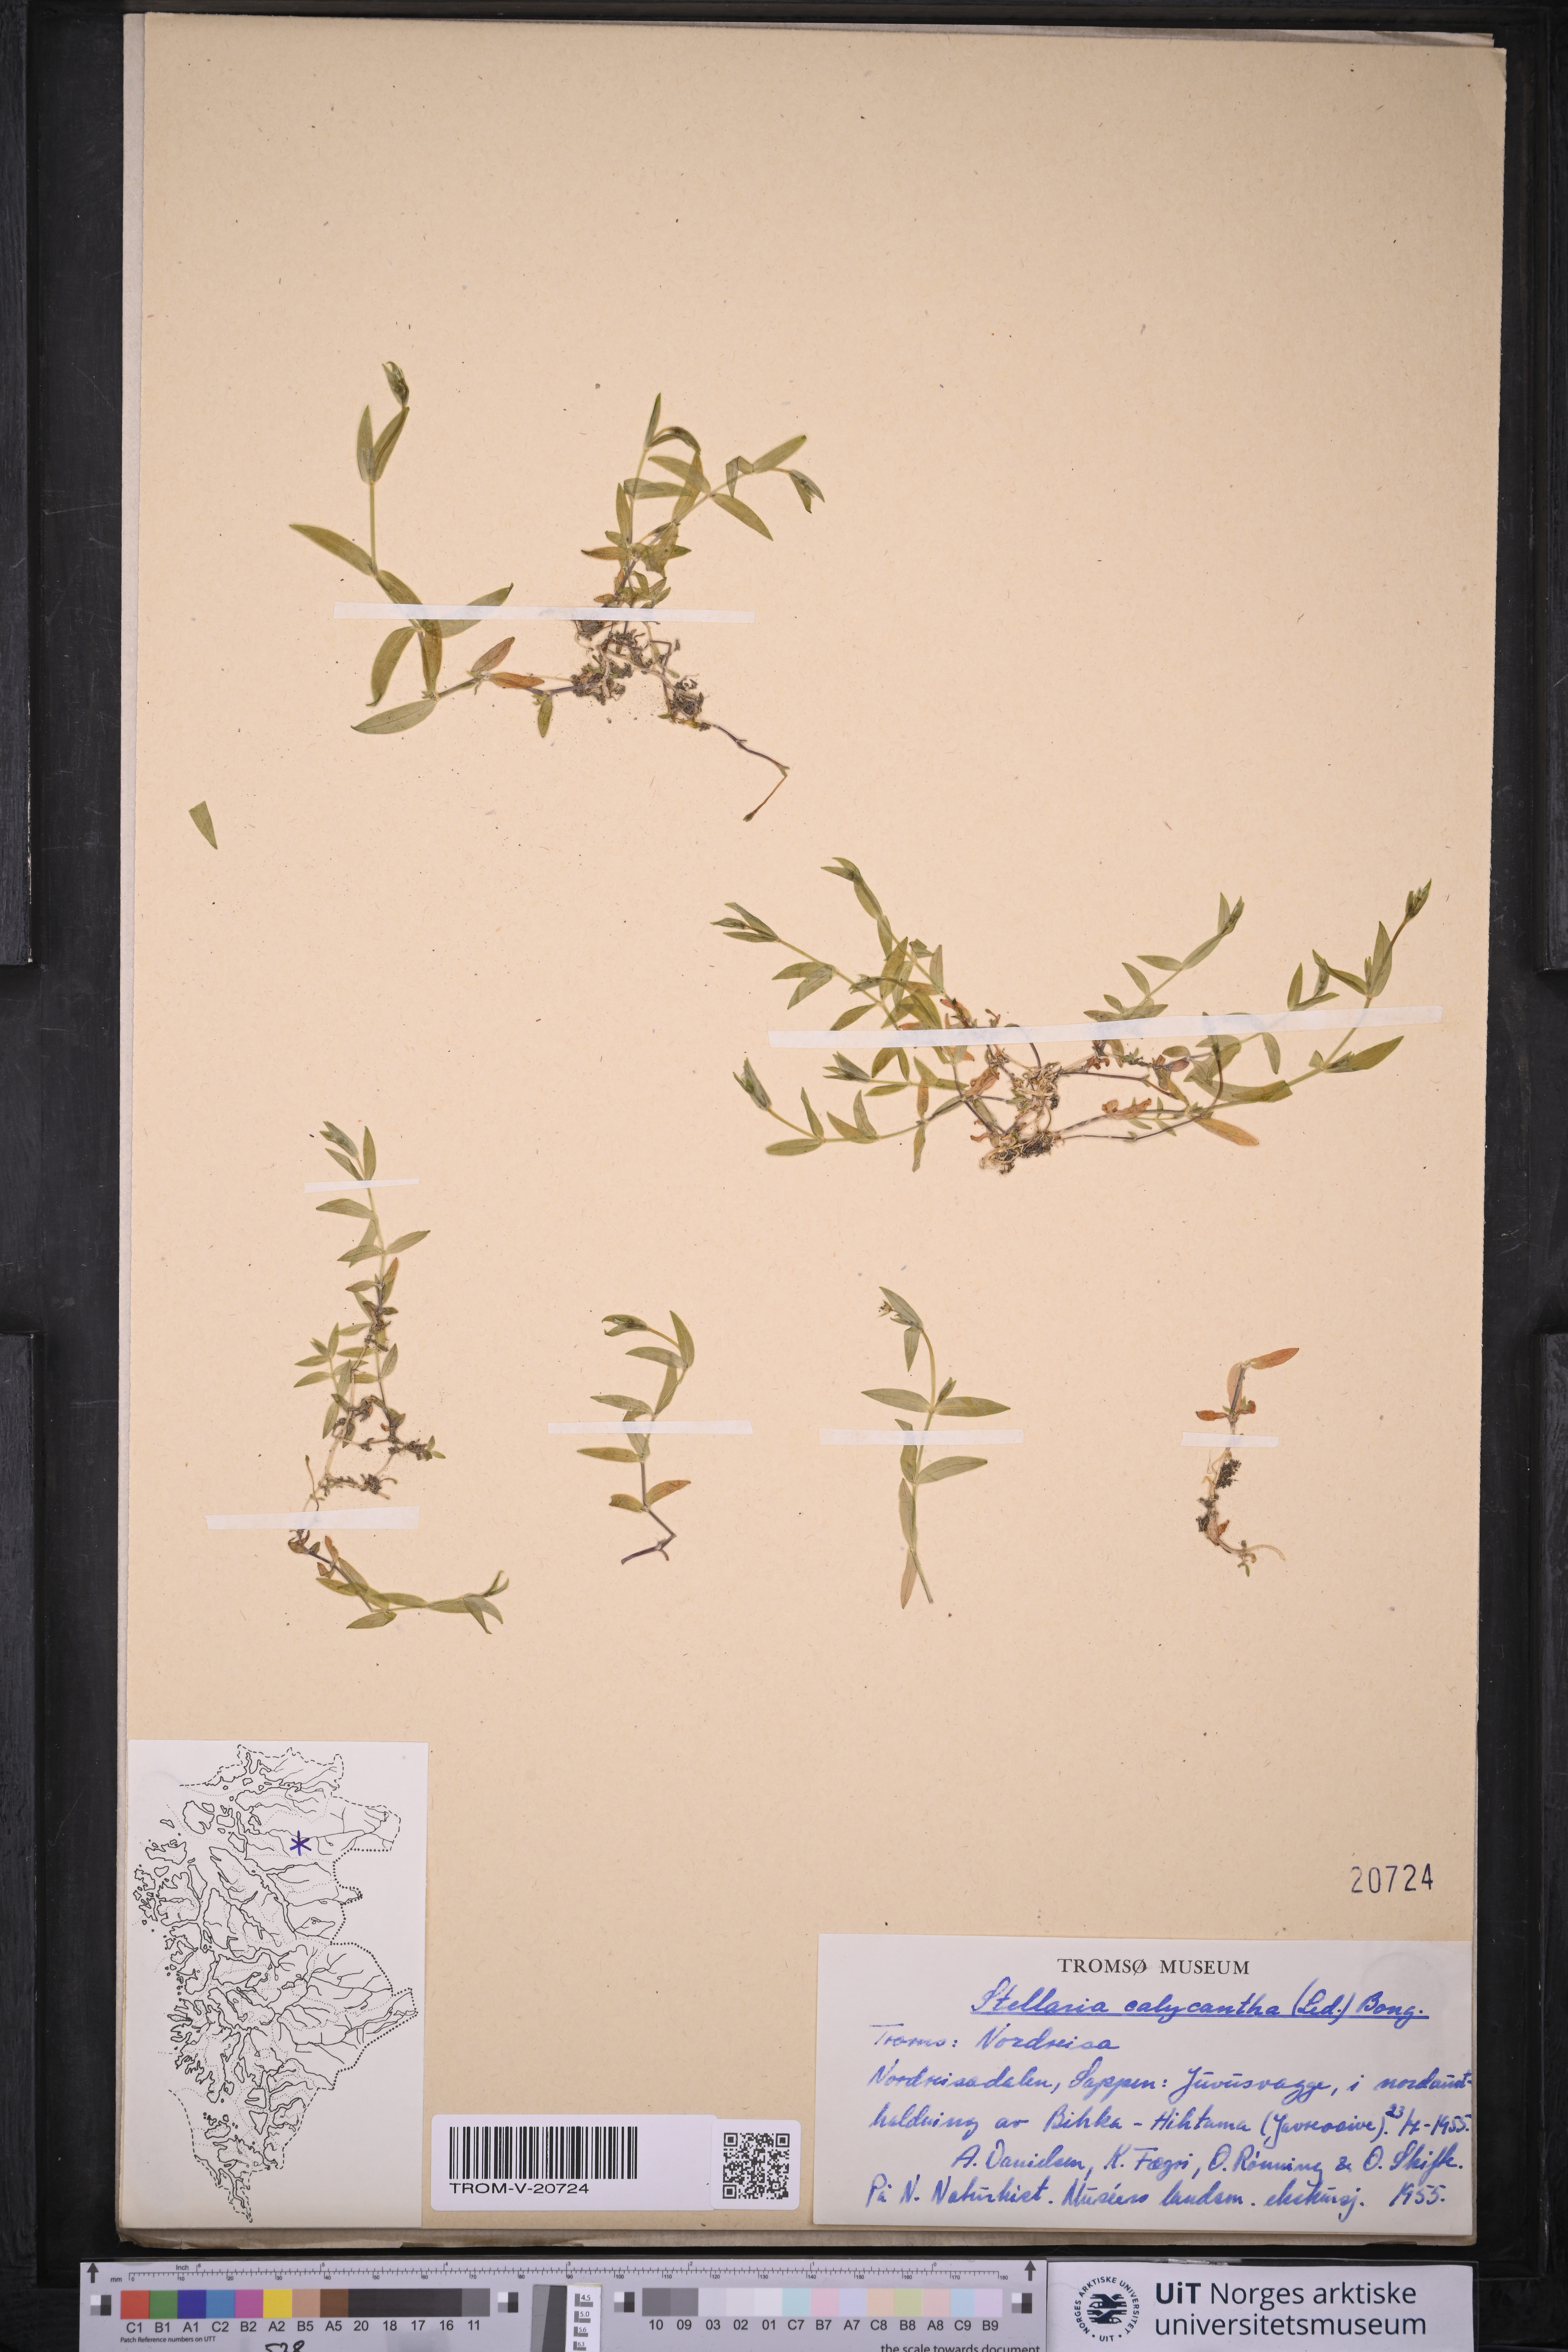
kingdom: Plantae
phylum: Tracheophyta
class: Magnoliopsida
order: Caryophyllales
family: Caryophyllaceae
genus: Stellaria
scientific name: Stellaria borealis
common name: Boreal starwort
